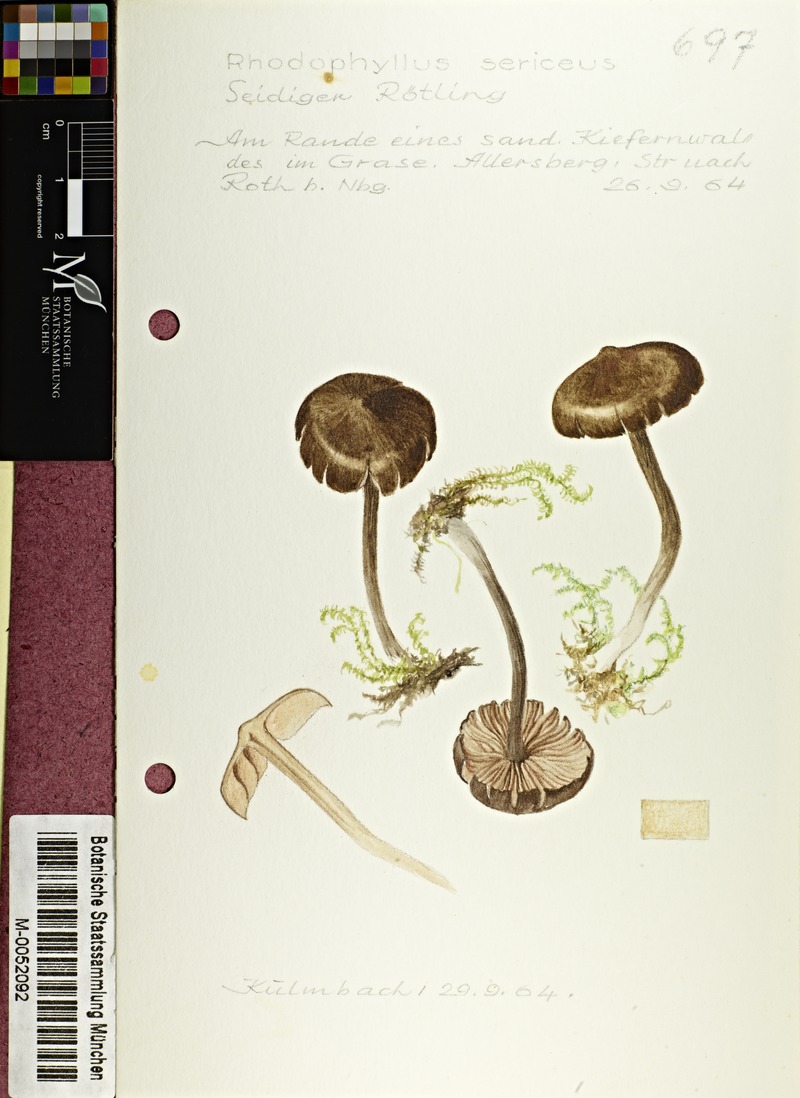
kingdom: Fungi
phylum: Basidiomycota
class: Agaricomycetes
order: Agaricales
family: Entolomataceae
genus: Entoloma
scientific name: Entoloma sericellum
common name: Cream pinkgill
